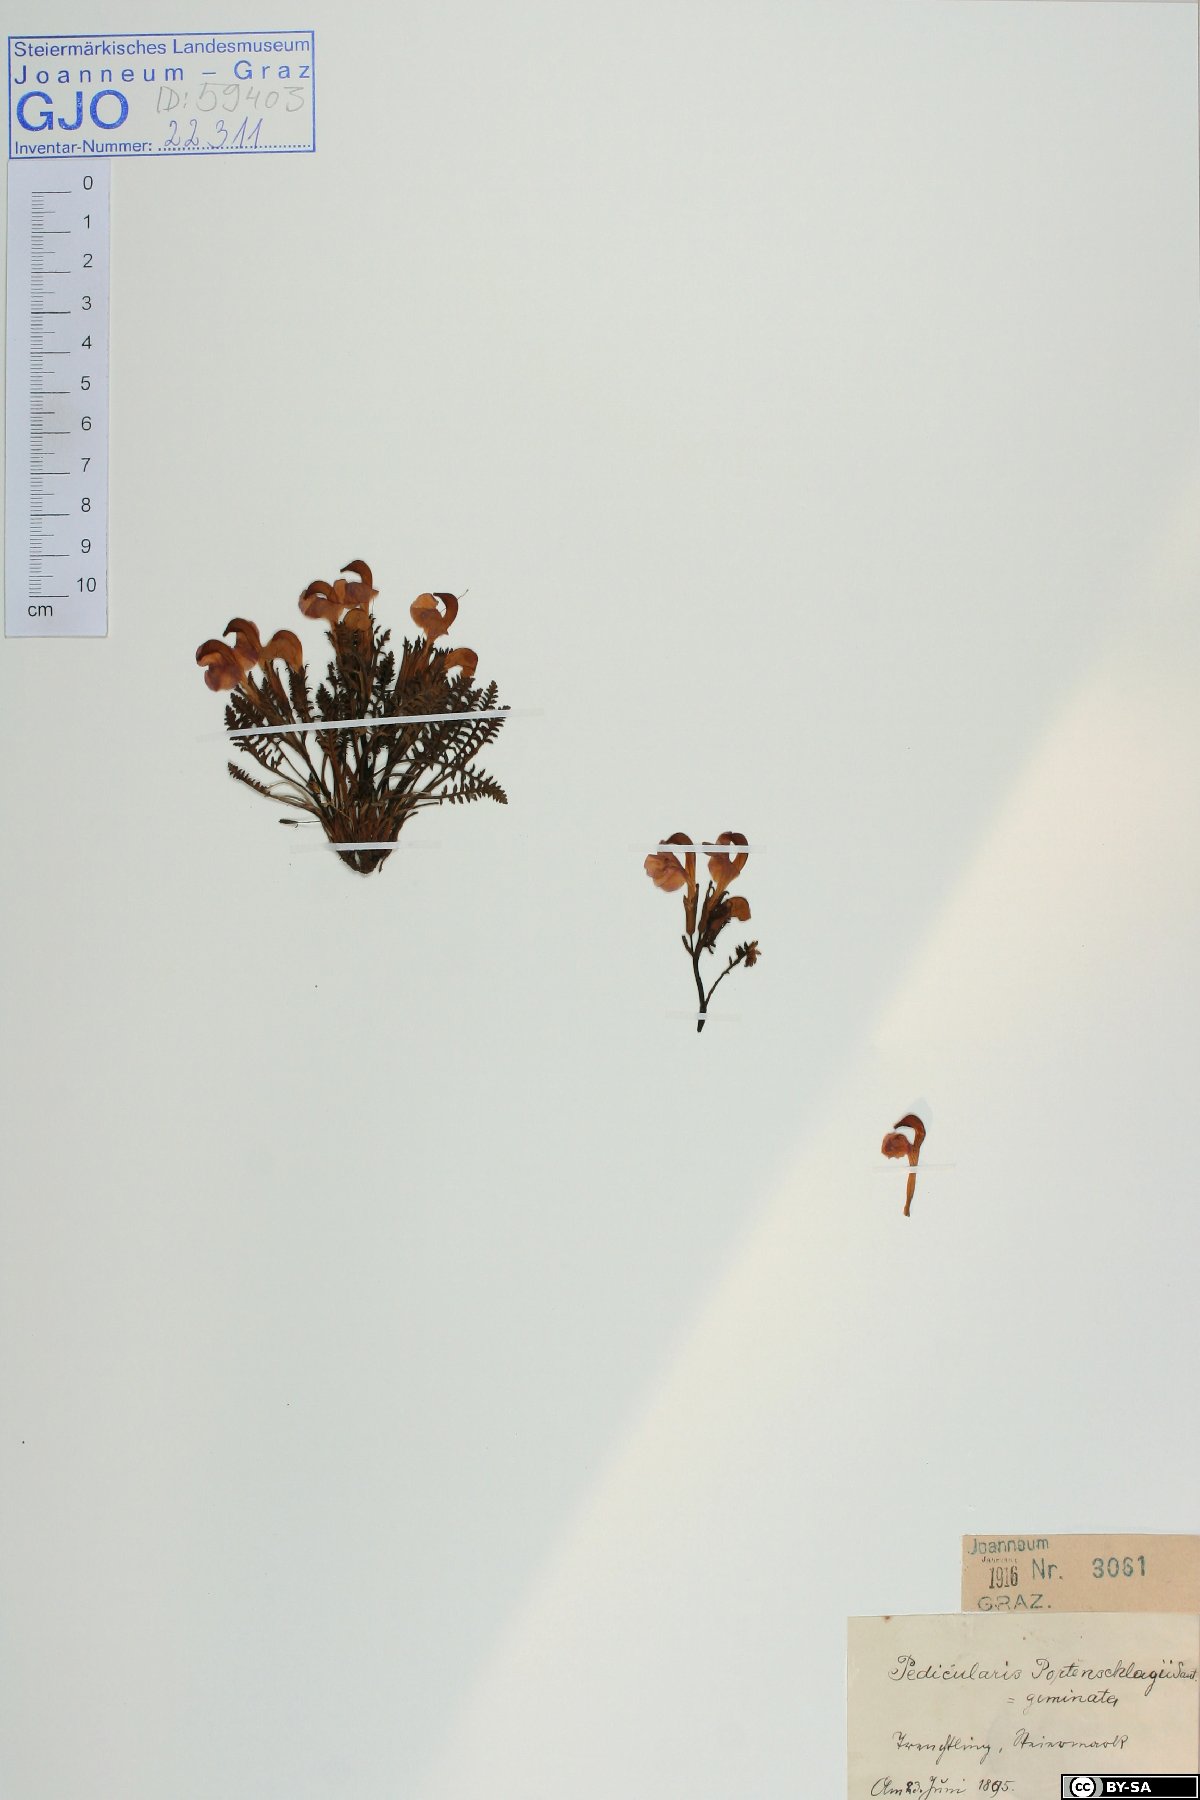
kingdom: Plantae
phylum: Tracheophyta
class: Magnoliopsida
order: Lamiales
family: Orobanchaceae
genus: Pedicularis
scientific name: Pedicularis portenschlagii
